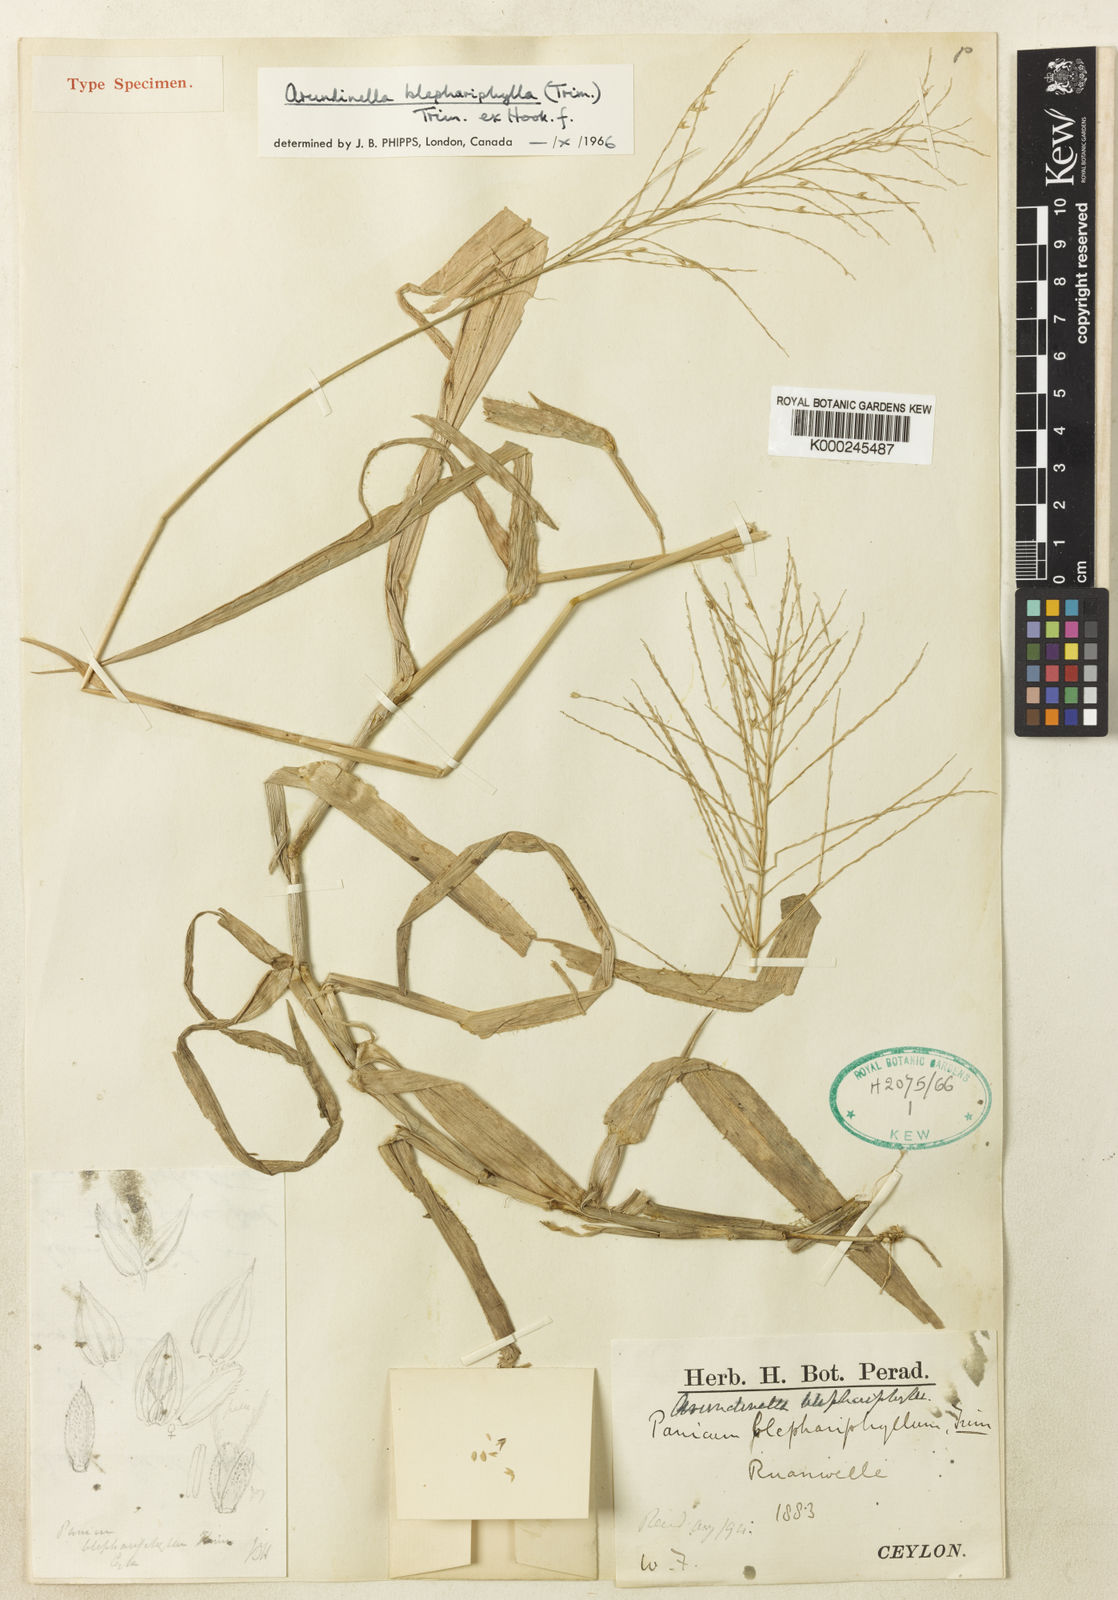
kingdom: Plantae
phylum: Tracheophyta
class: Liliopsida
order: Poales
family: Poaceae
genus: Arundinella
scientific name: Arundinella blephariphylla
